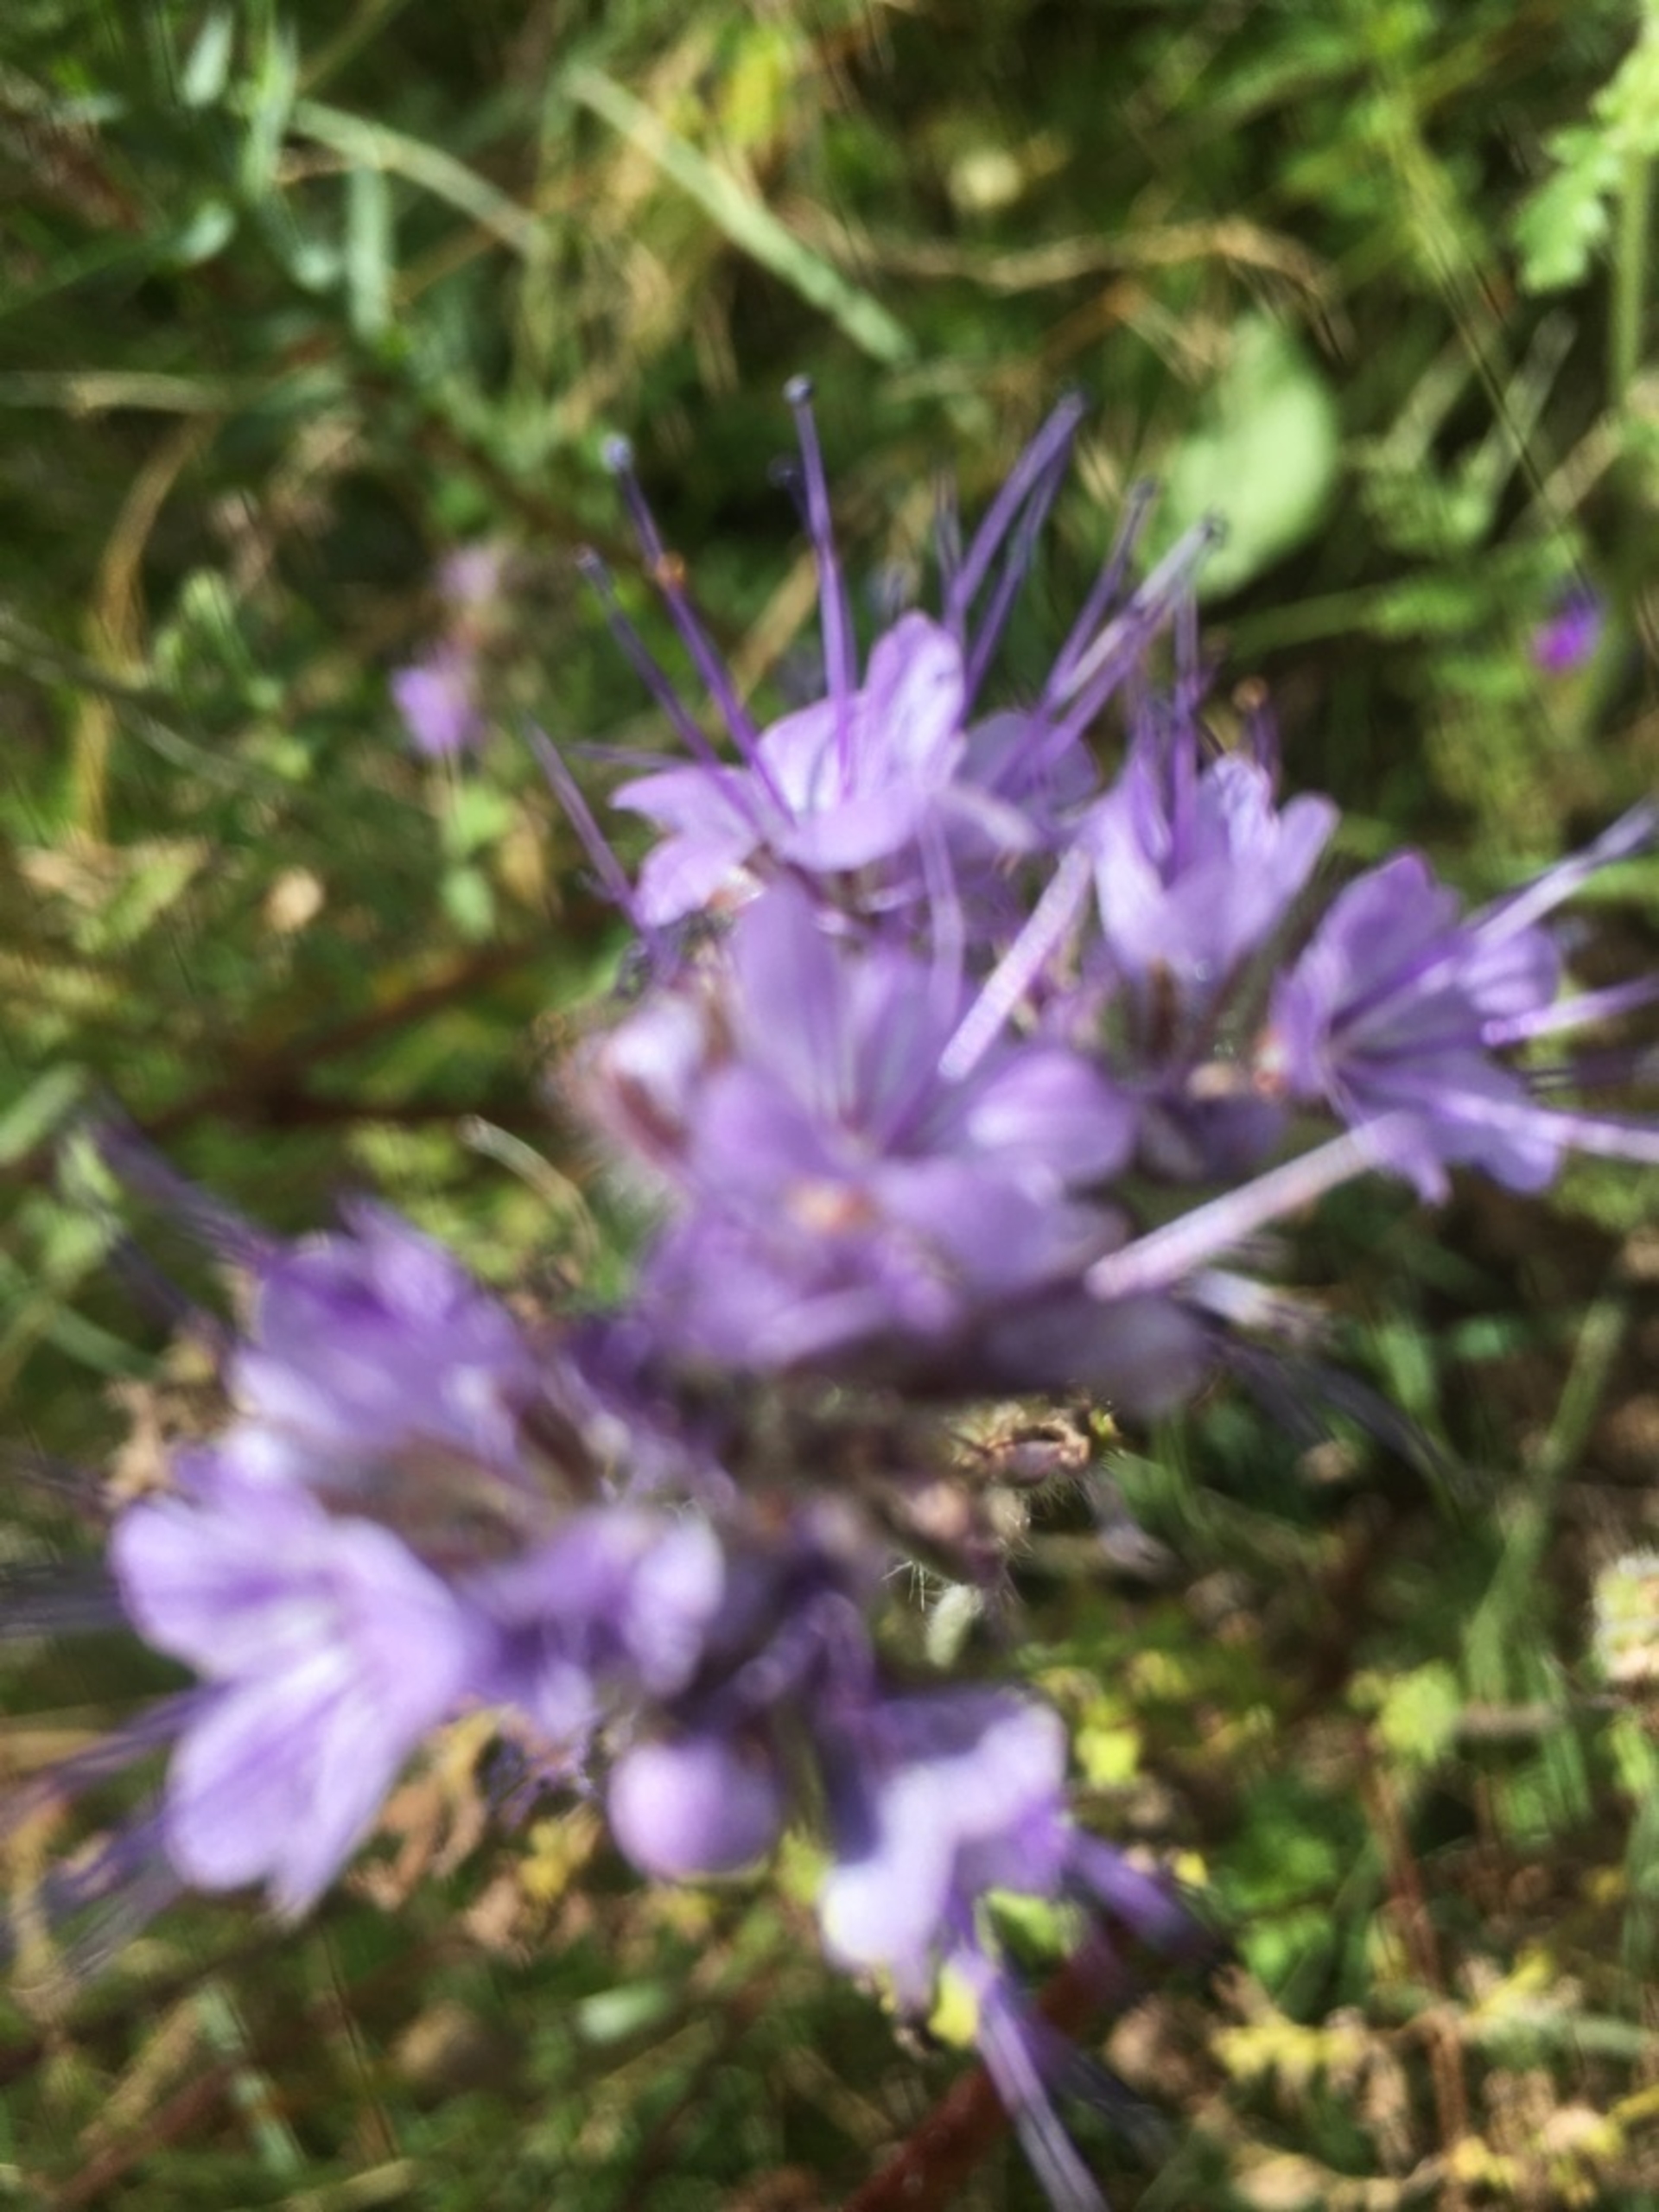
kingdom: Plantae
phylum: Tracheophyta
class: Magnoliopsida
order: Boraginales
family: Hydrophyllaceae
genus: Phacelia
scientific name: Phacelia tanacetifolia
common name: Honningurt
